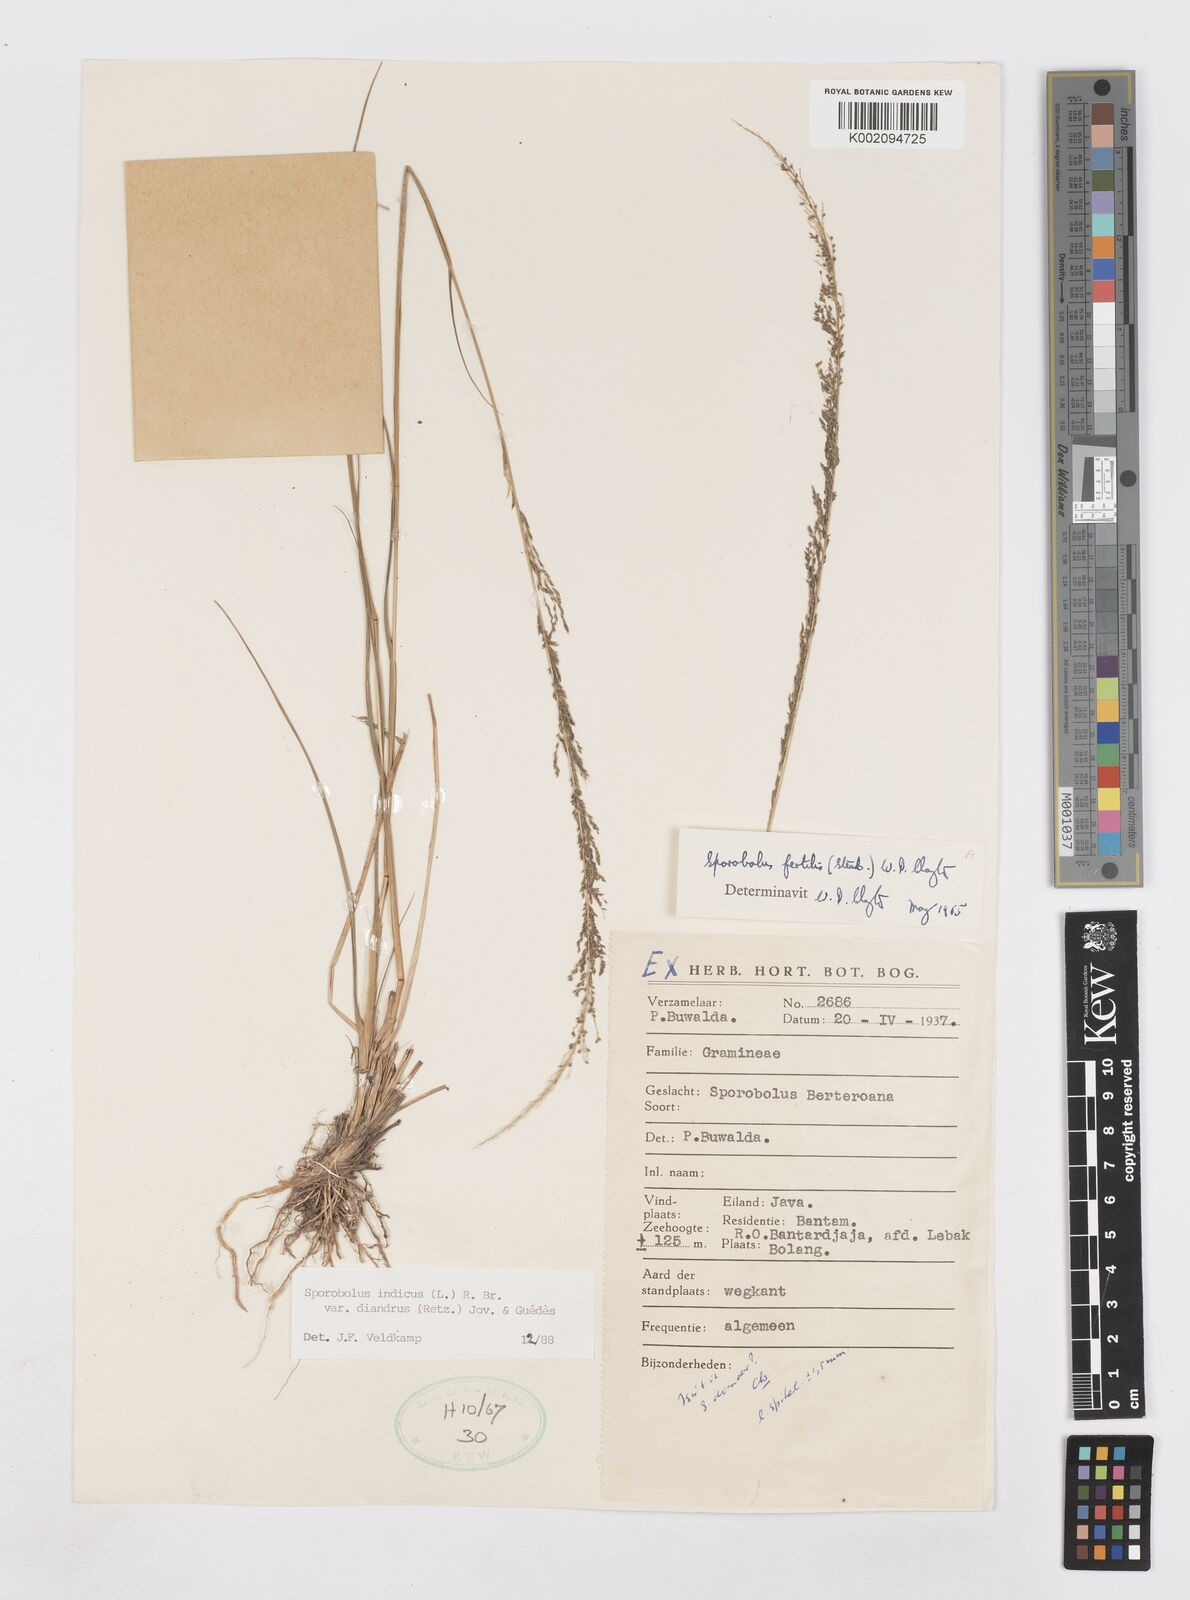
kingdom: Plantae
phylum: Tracheophyta
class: Liliopsida
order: Poales
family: Poaceae
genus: Sporobolus
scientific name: Sporobolus diandrus
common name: Tussock dropseed
